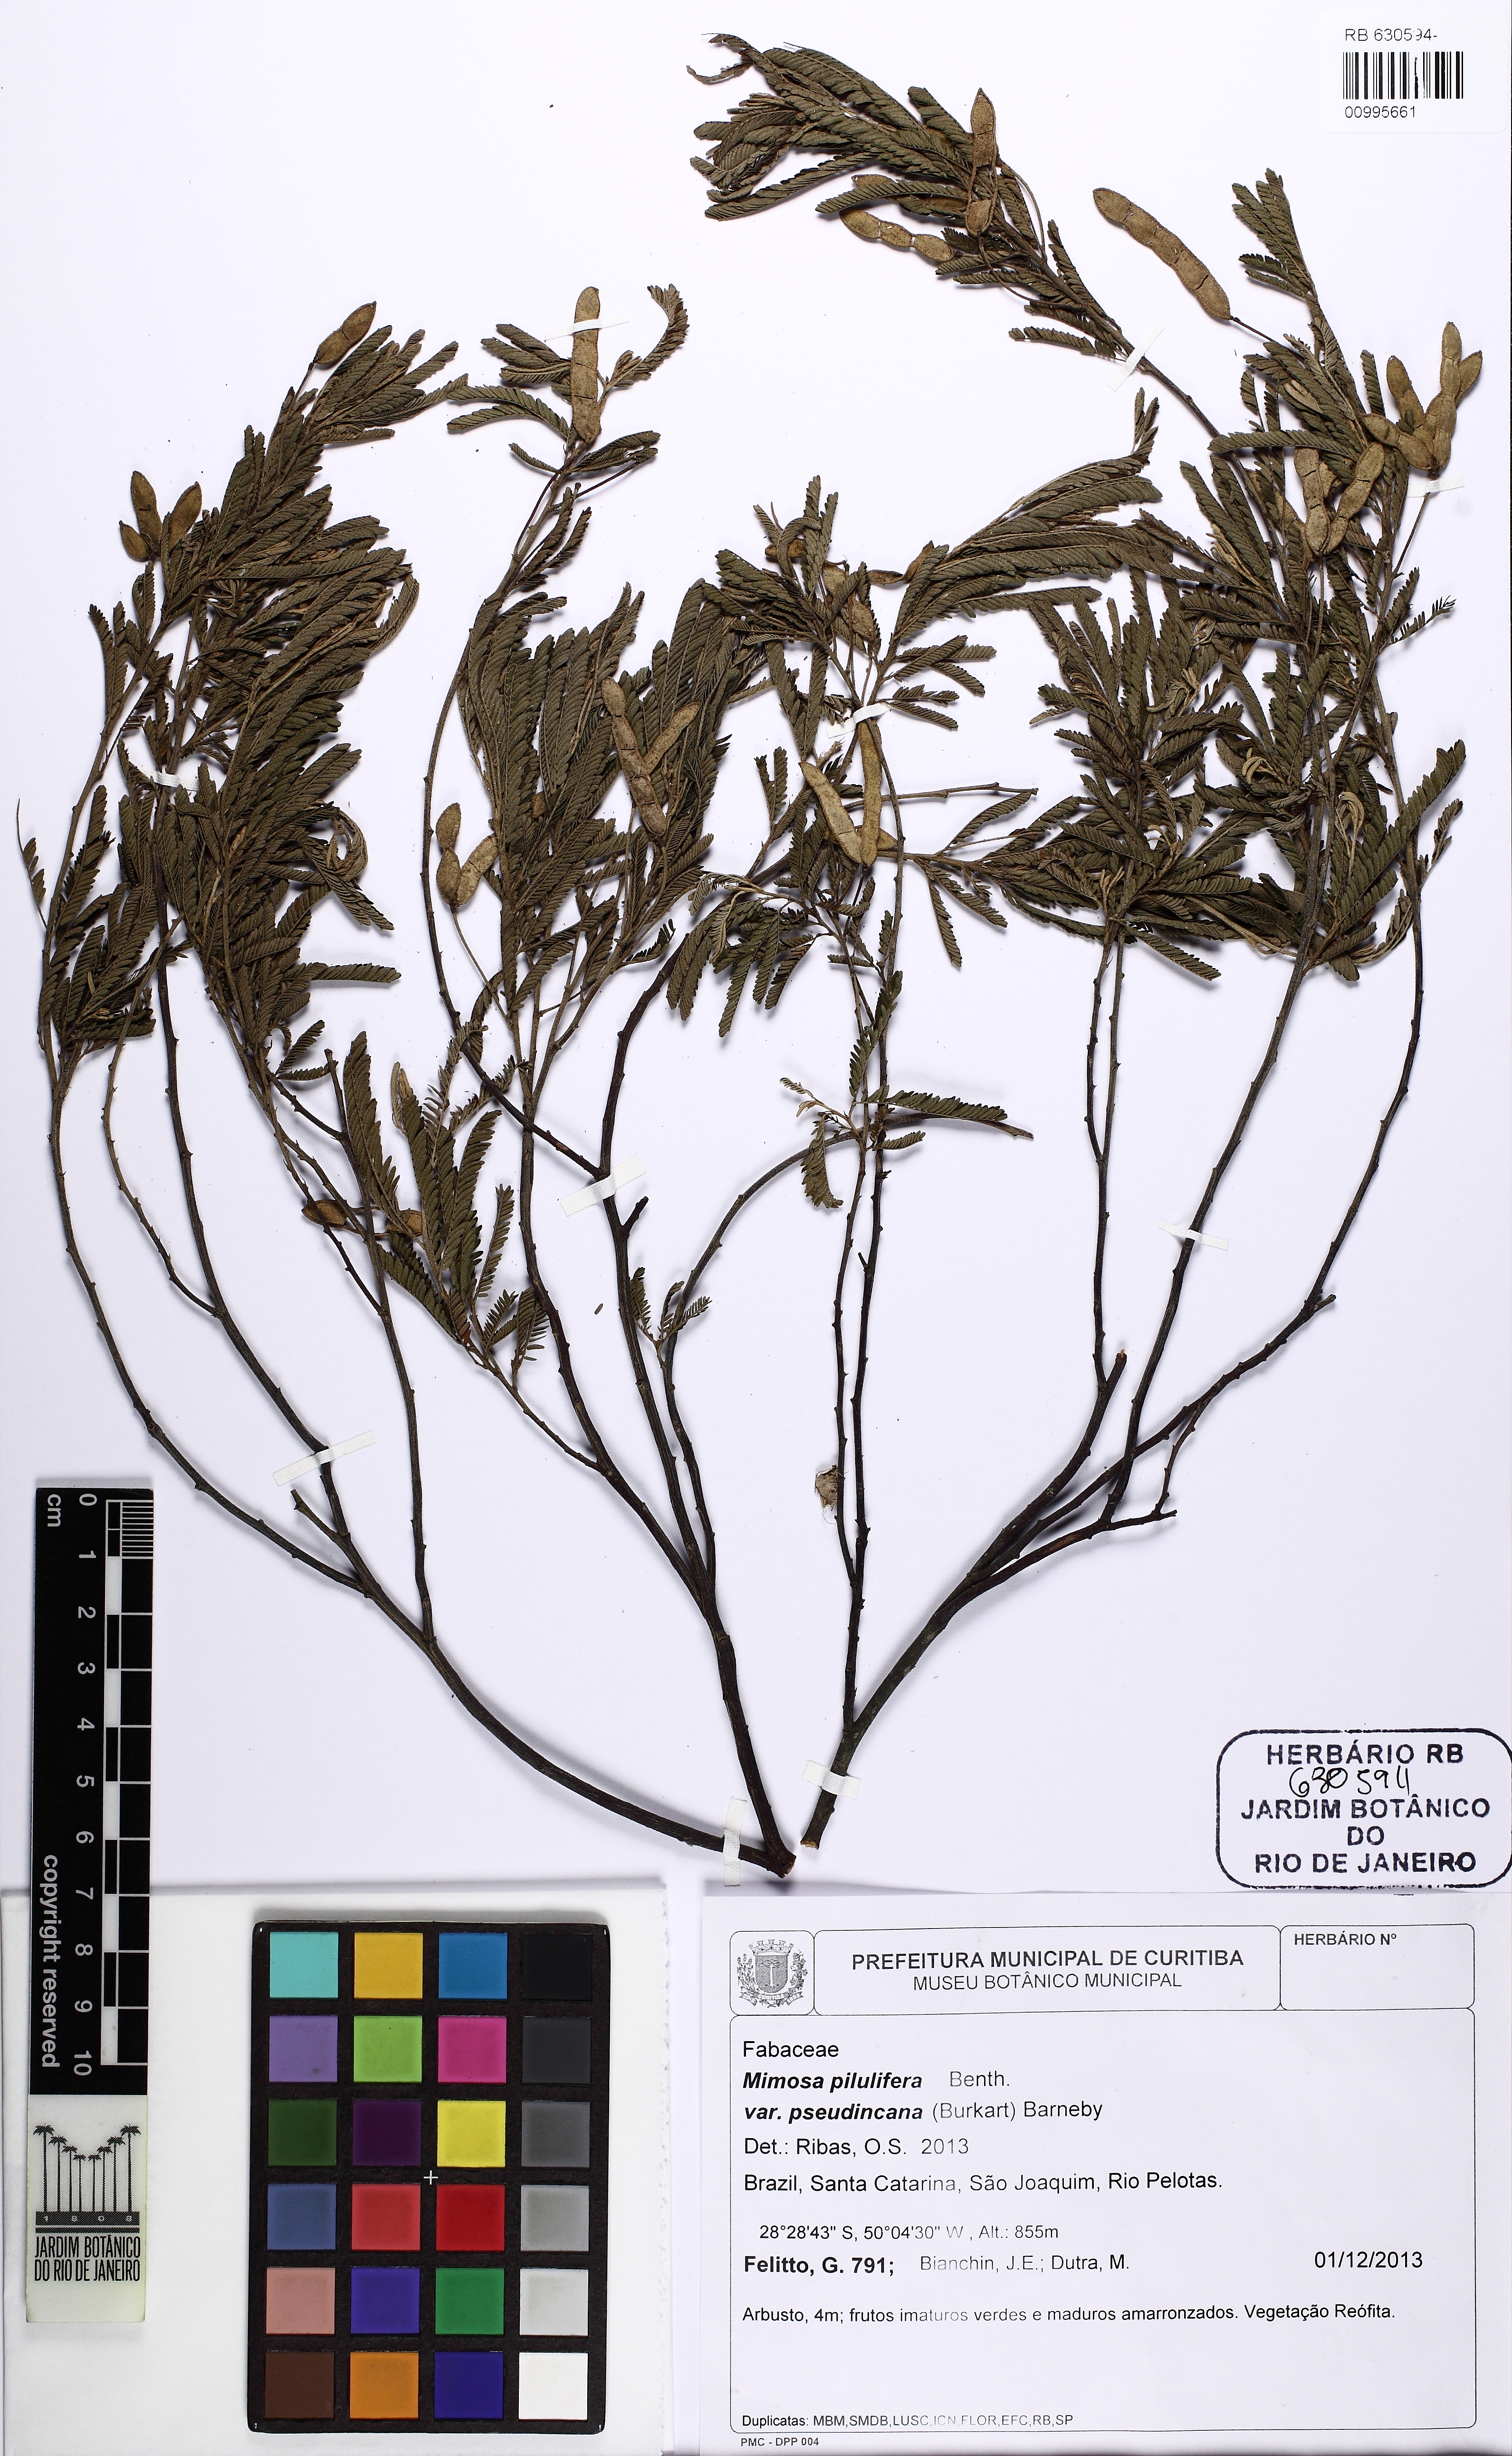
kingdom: Plantae
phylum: Tracheophyta
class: Magnoliopsida
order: Fabales
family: Fabaceae
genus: Mimosa
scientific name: Mimosa pilulifera
